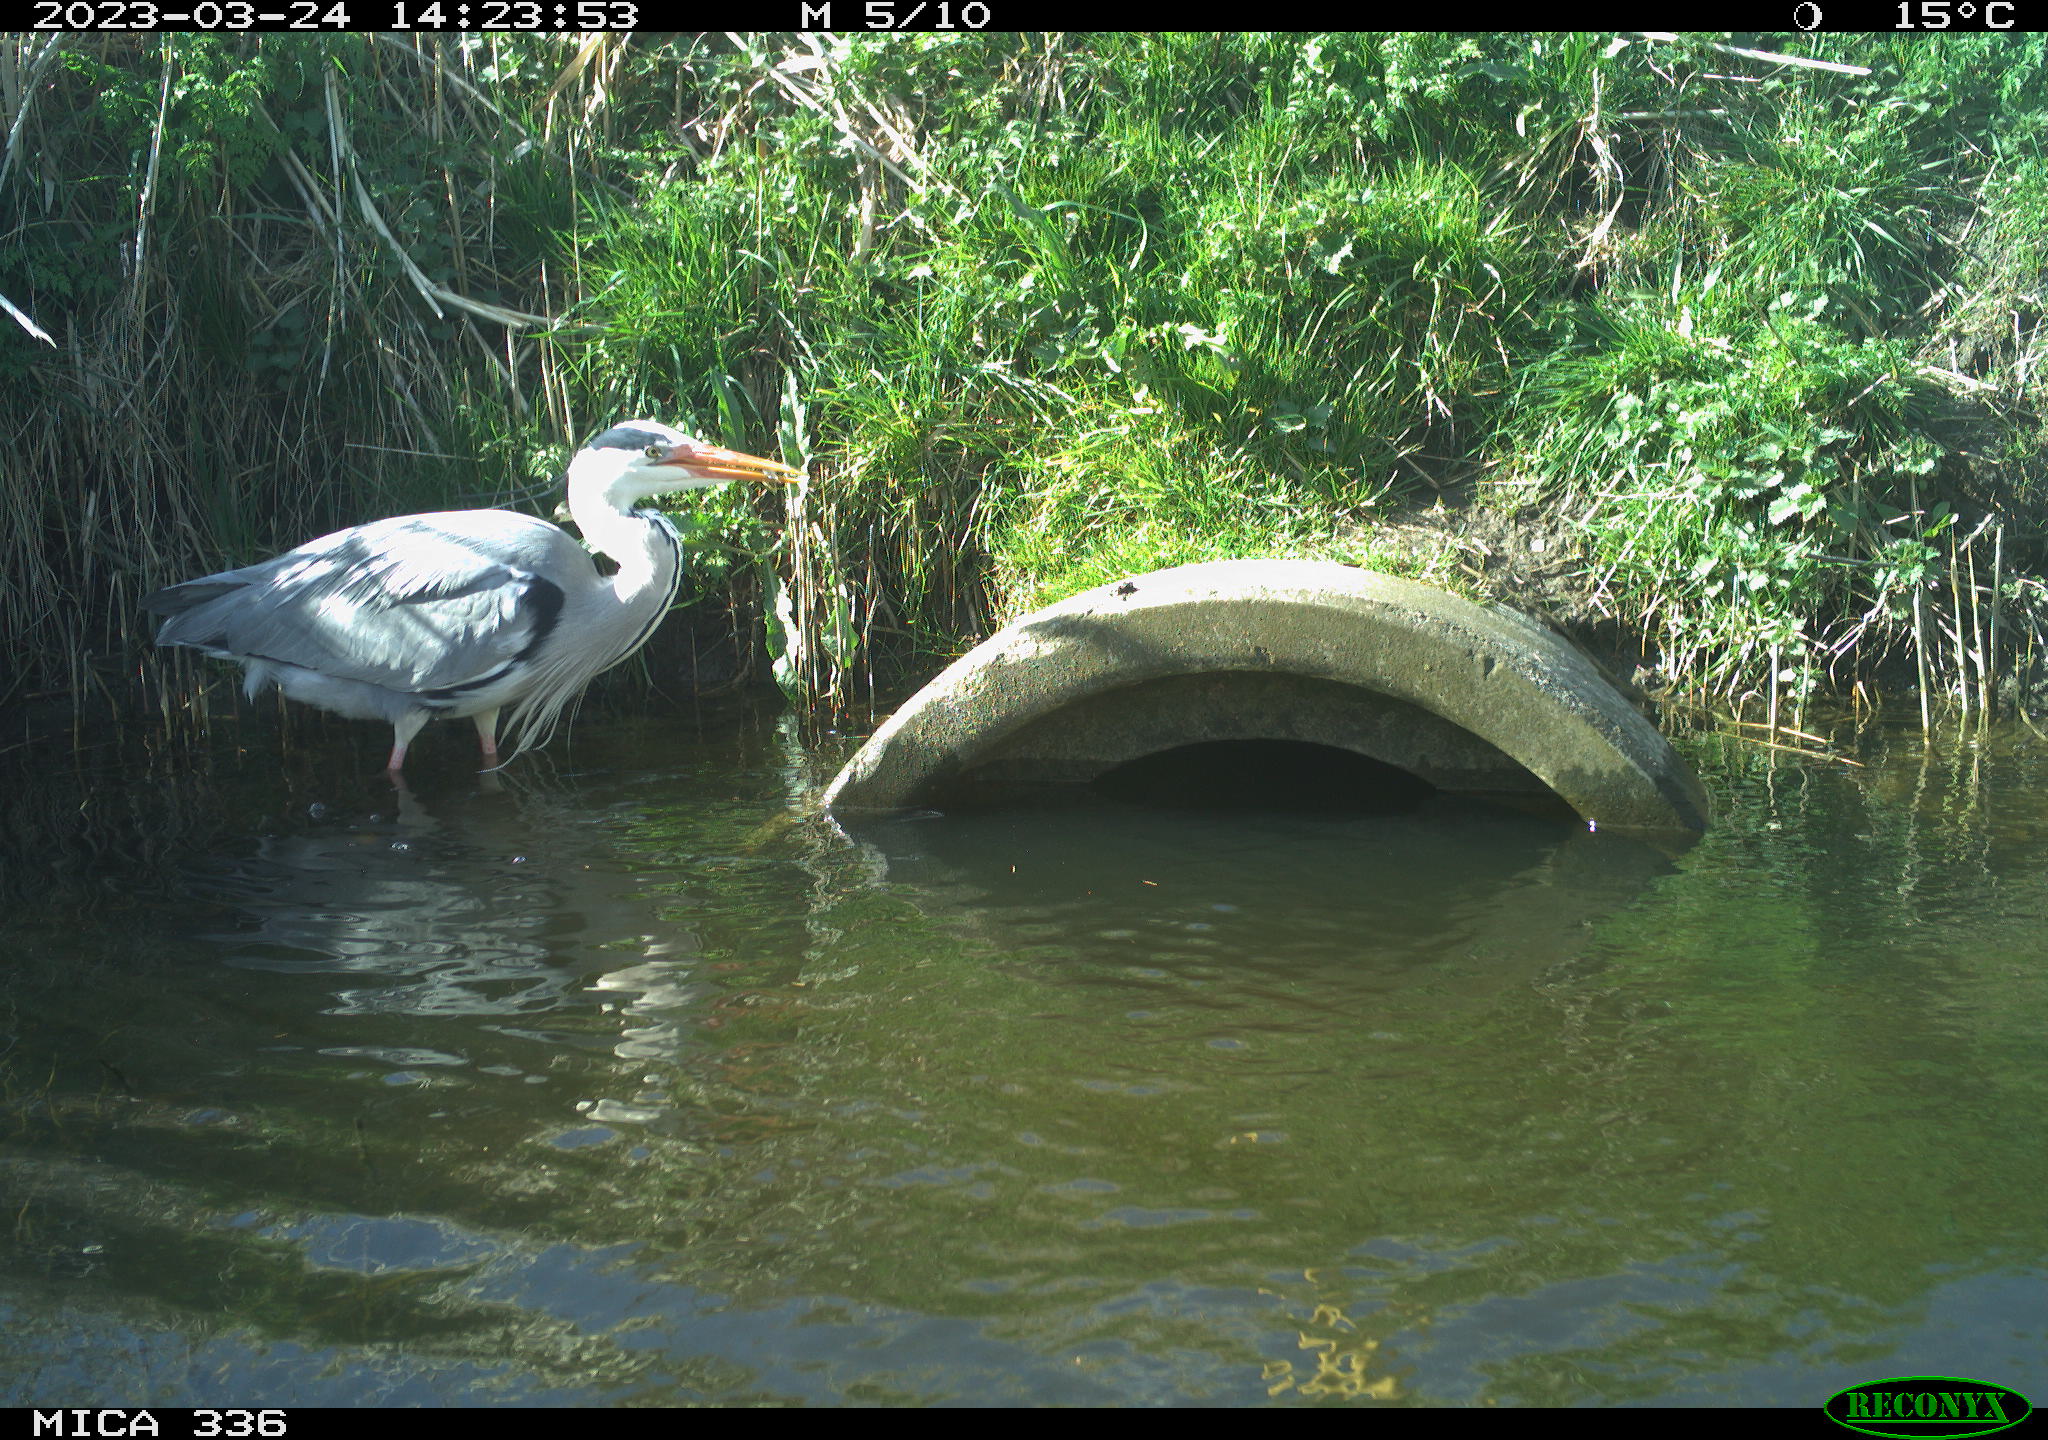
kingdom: Animalia
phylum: Chordata
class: Aves
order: Pelecaniformes
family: Ardeidae
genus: Ardea
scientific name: Ardea
